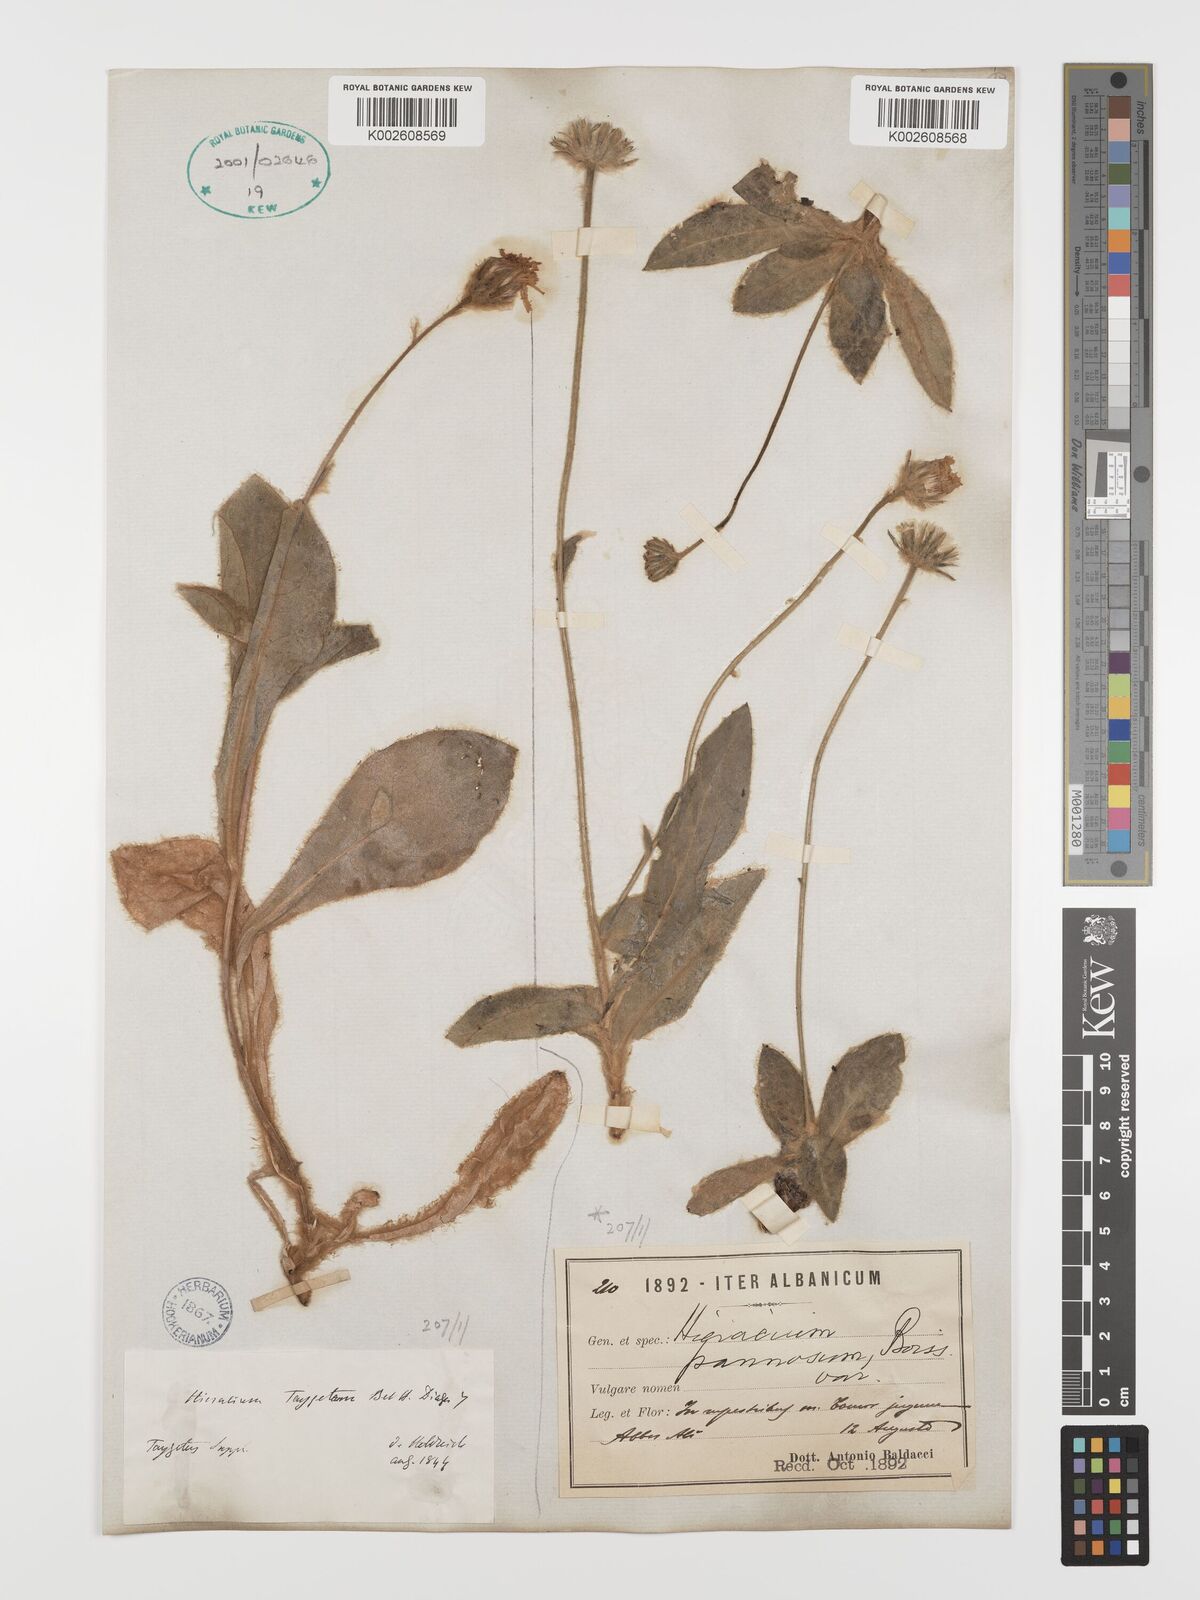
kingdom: Plantae
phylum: Tracheophyta
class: Magnoliopsida
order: Asterales
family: Asteraceae
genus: Hieracium
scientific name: Hieracium pannosum
